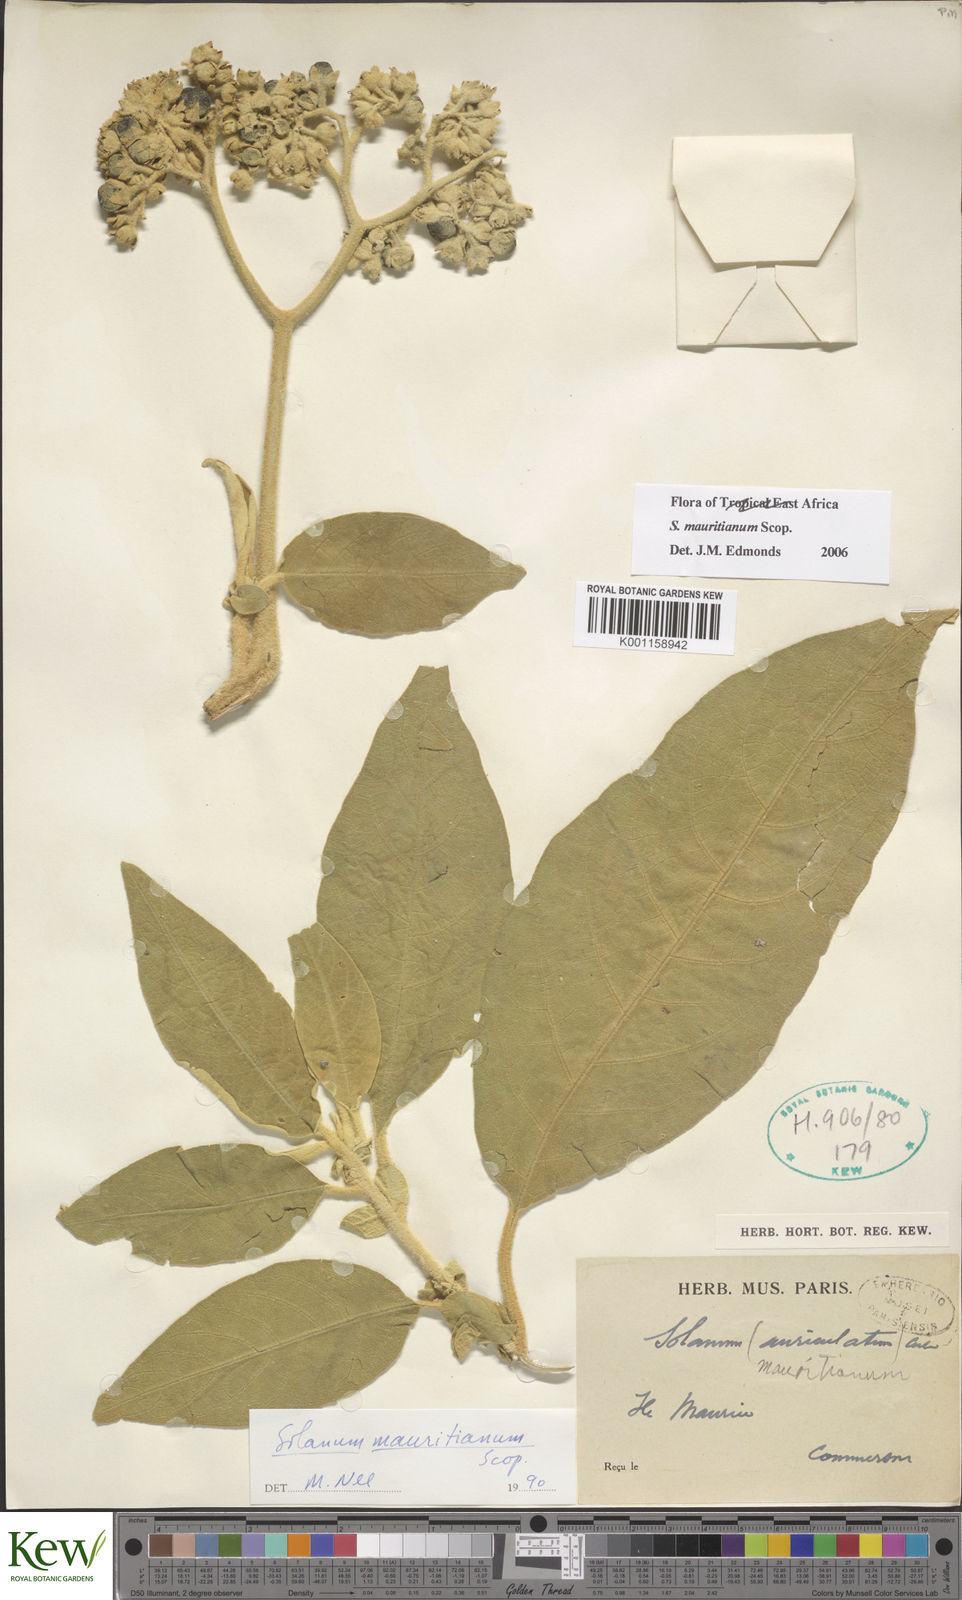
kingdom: Plantae
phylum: Tracheophyta
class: Magnoliopsida
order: Solanales
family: Solanaceae
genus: Solanum
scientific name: Solanum mauritianum
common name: Earleaf nightshade
